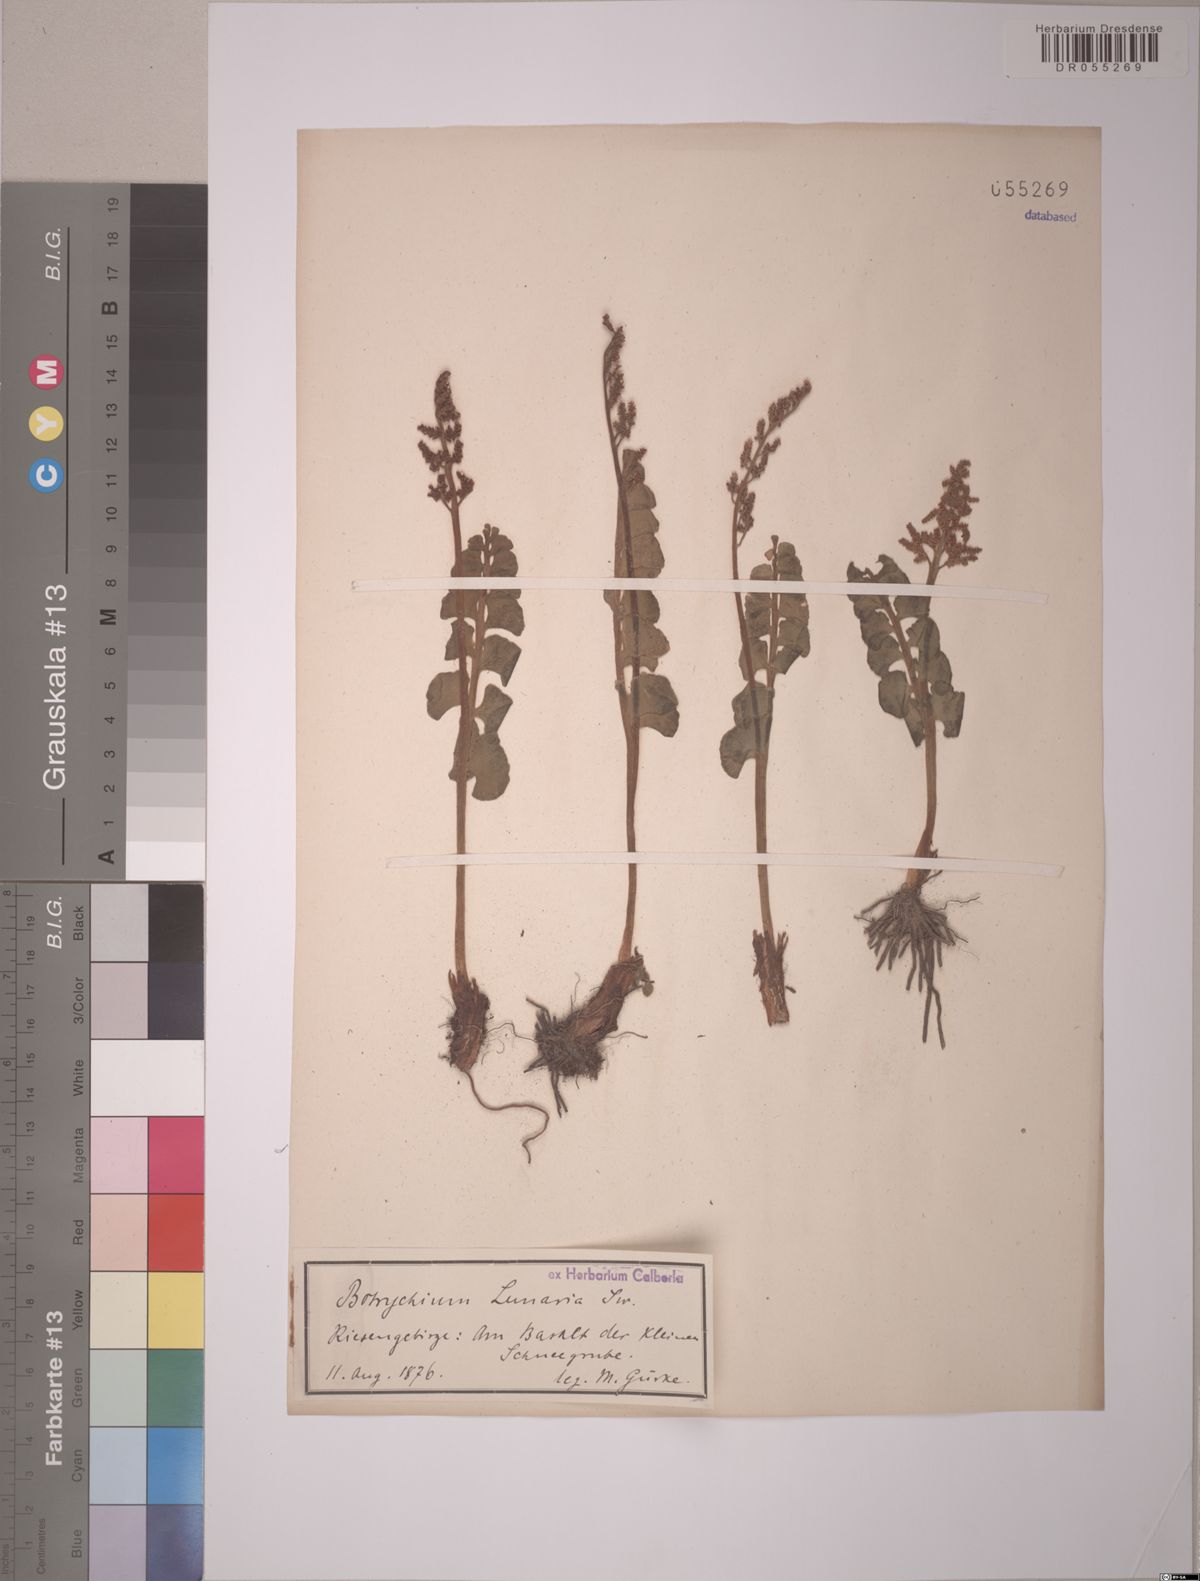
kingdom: Plantae
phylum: Tracheophyta
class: Polypodiopsida
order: Ophioglossales
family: Ophioglossaceae
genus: Botrychium
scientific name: Botrychium lunaria
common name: Moonwort
